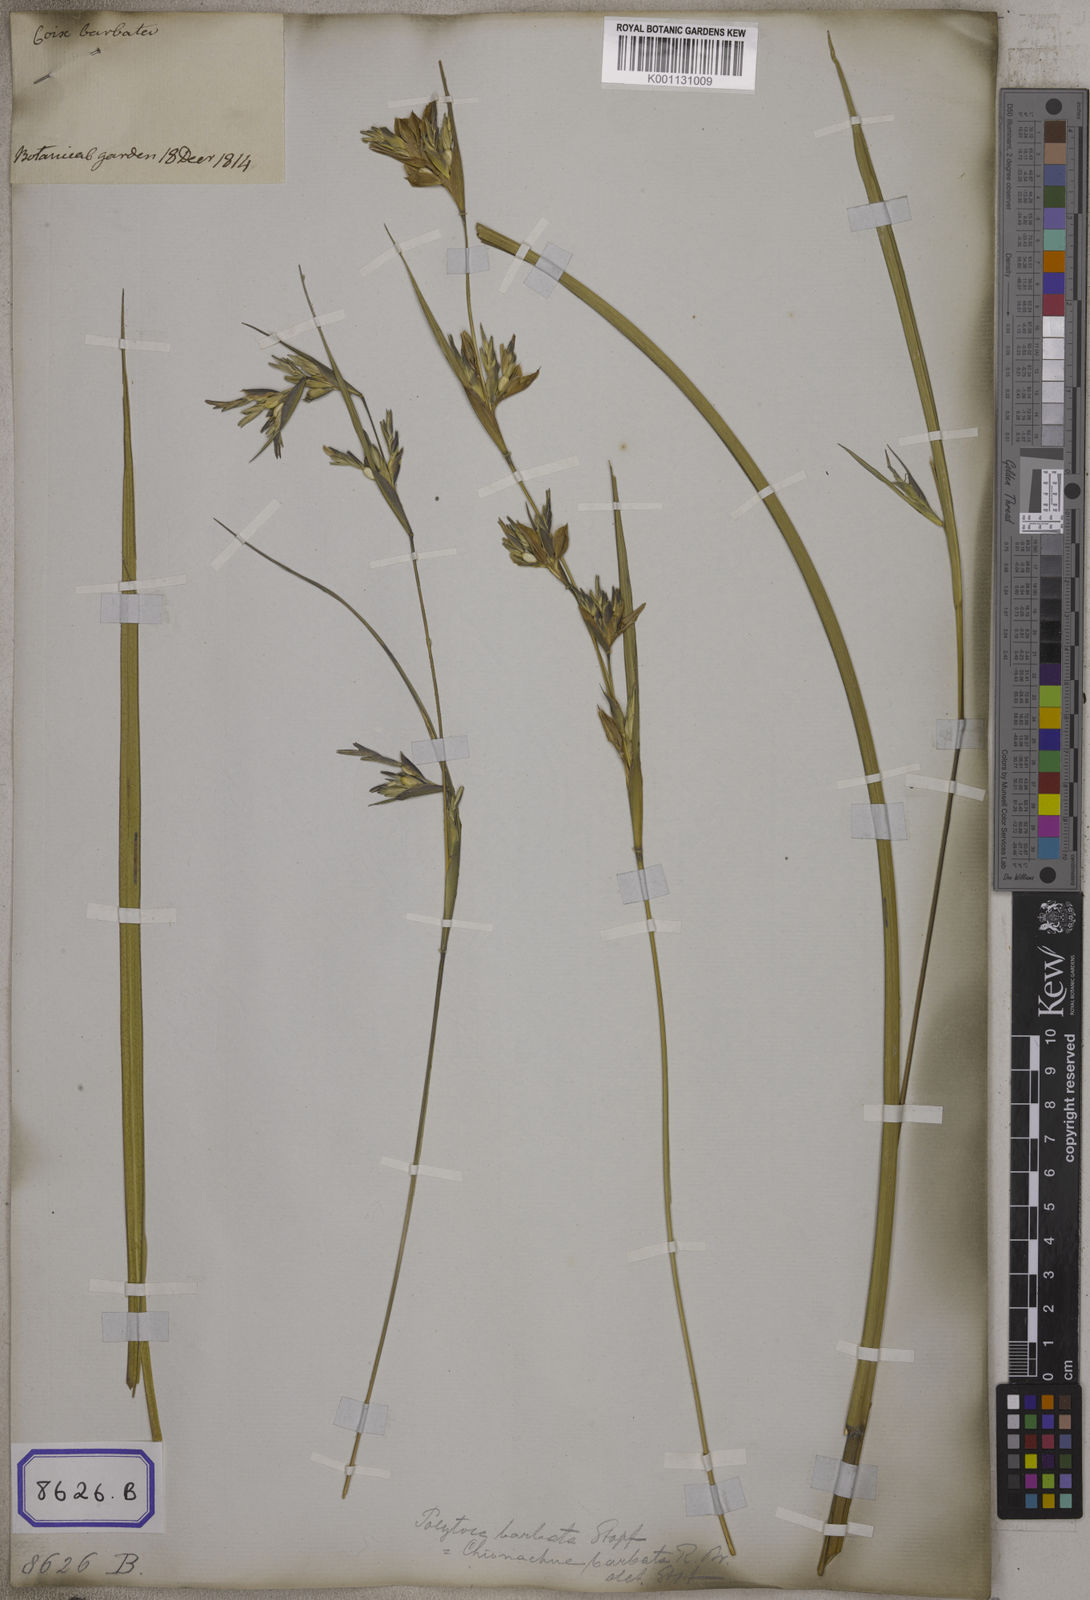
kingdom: Plantae
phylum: Tracheophyta
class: Liliopsida
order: Poales
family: Poaceae
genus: Polytoca
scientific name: Polytoca gigantea
